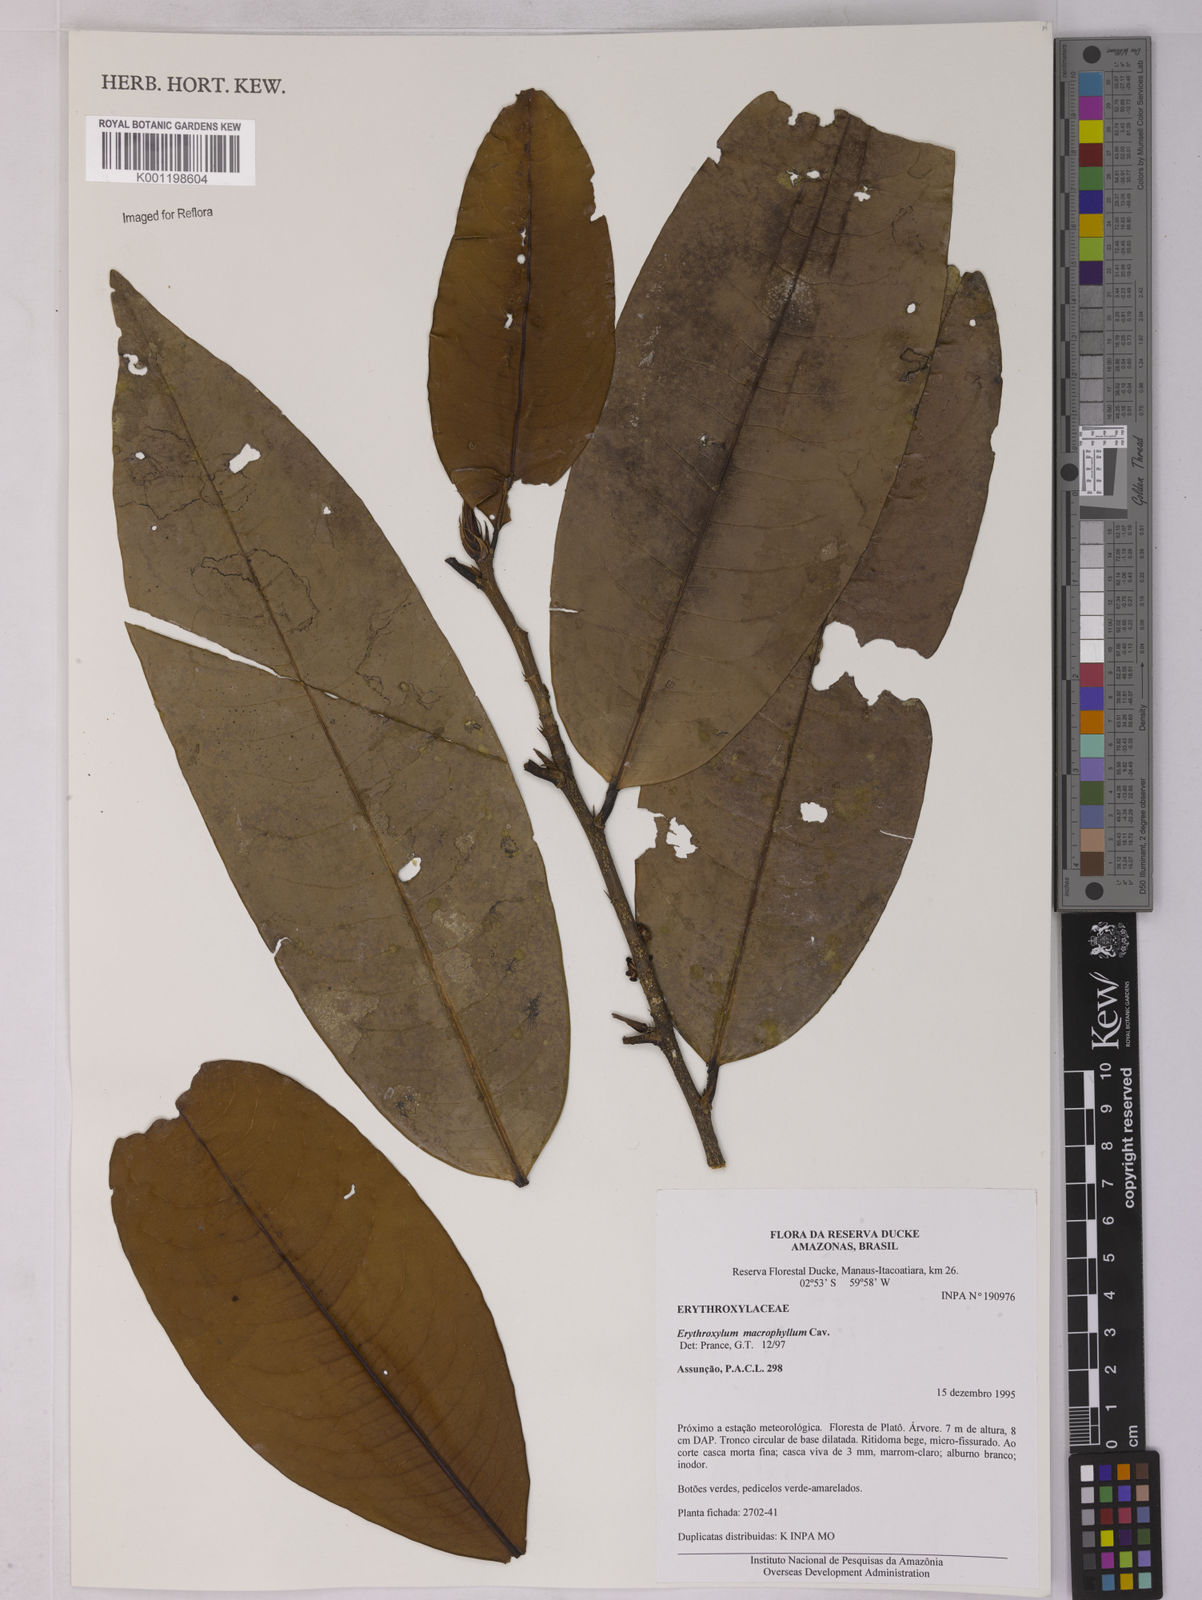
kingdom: Plantae
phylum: Tracheophyta
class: Magnoliopsida
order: Malpighiales
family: Erythroxylaceae
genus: Erythroxylum
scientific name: Erythroxylum macrophyllum
